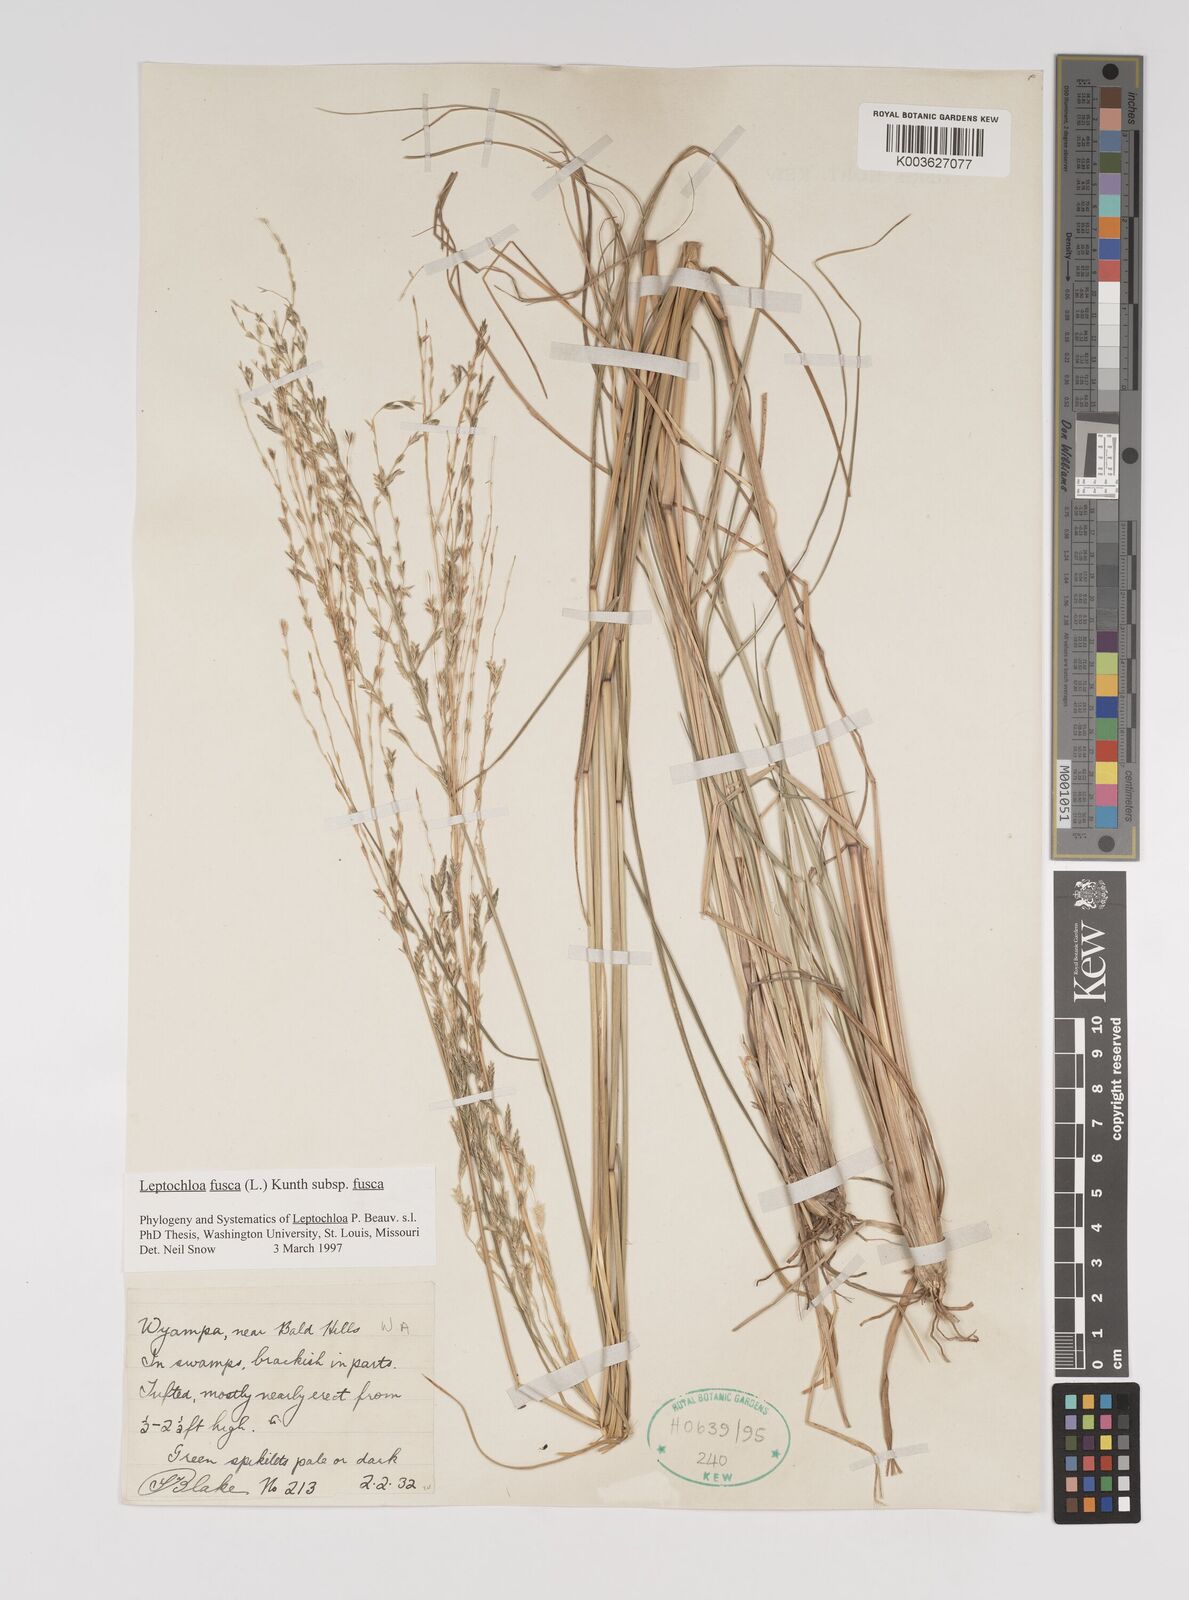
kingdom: Plantae
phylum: Tracheophyta
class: Liliopsida
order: Poales
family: Poaceae
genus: Diplachne
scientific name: Diplachne fusca
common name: Brown beetle grass
